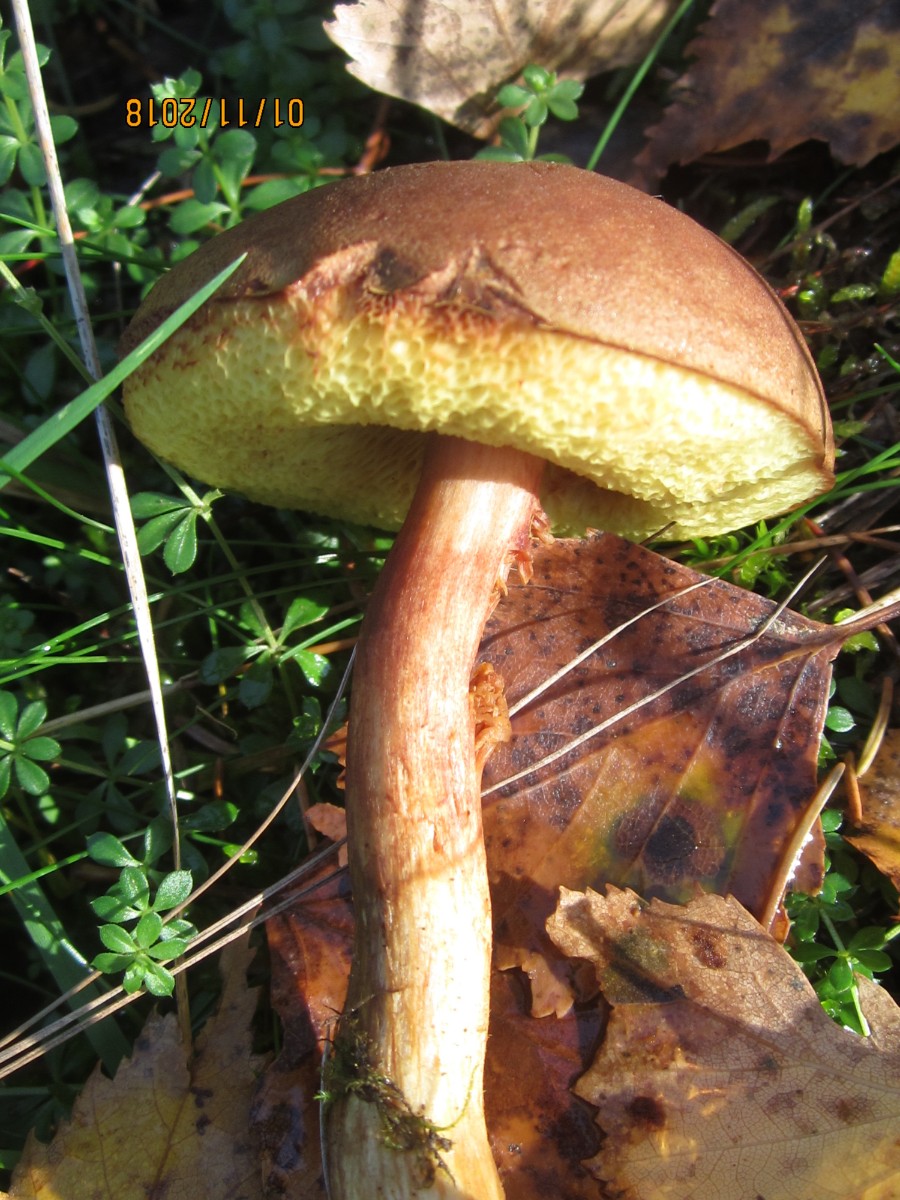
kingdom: Fungi
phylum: Basidiomycota
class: Agaricomycetes
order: Boletales
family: Boletaceae
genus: Xerocomus
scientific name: Xerocomus ferrugineus
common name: vaskeskinds-rørhat
